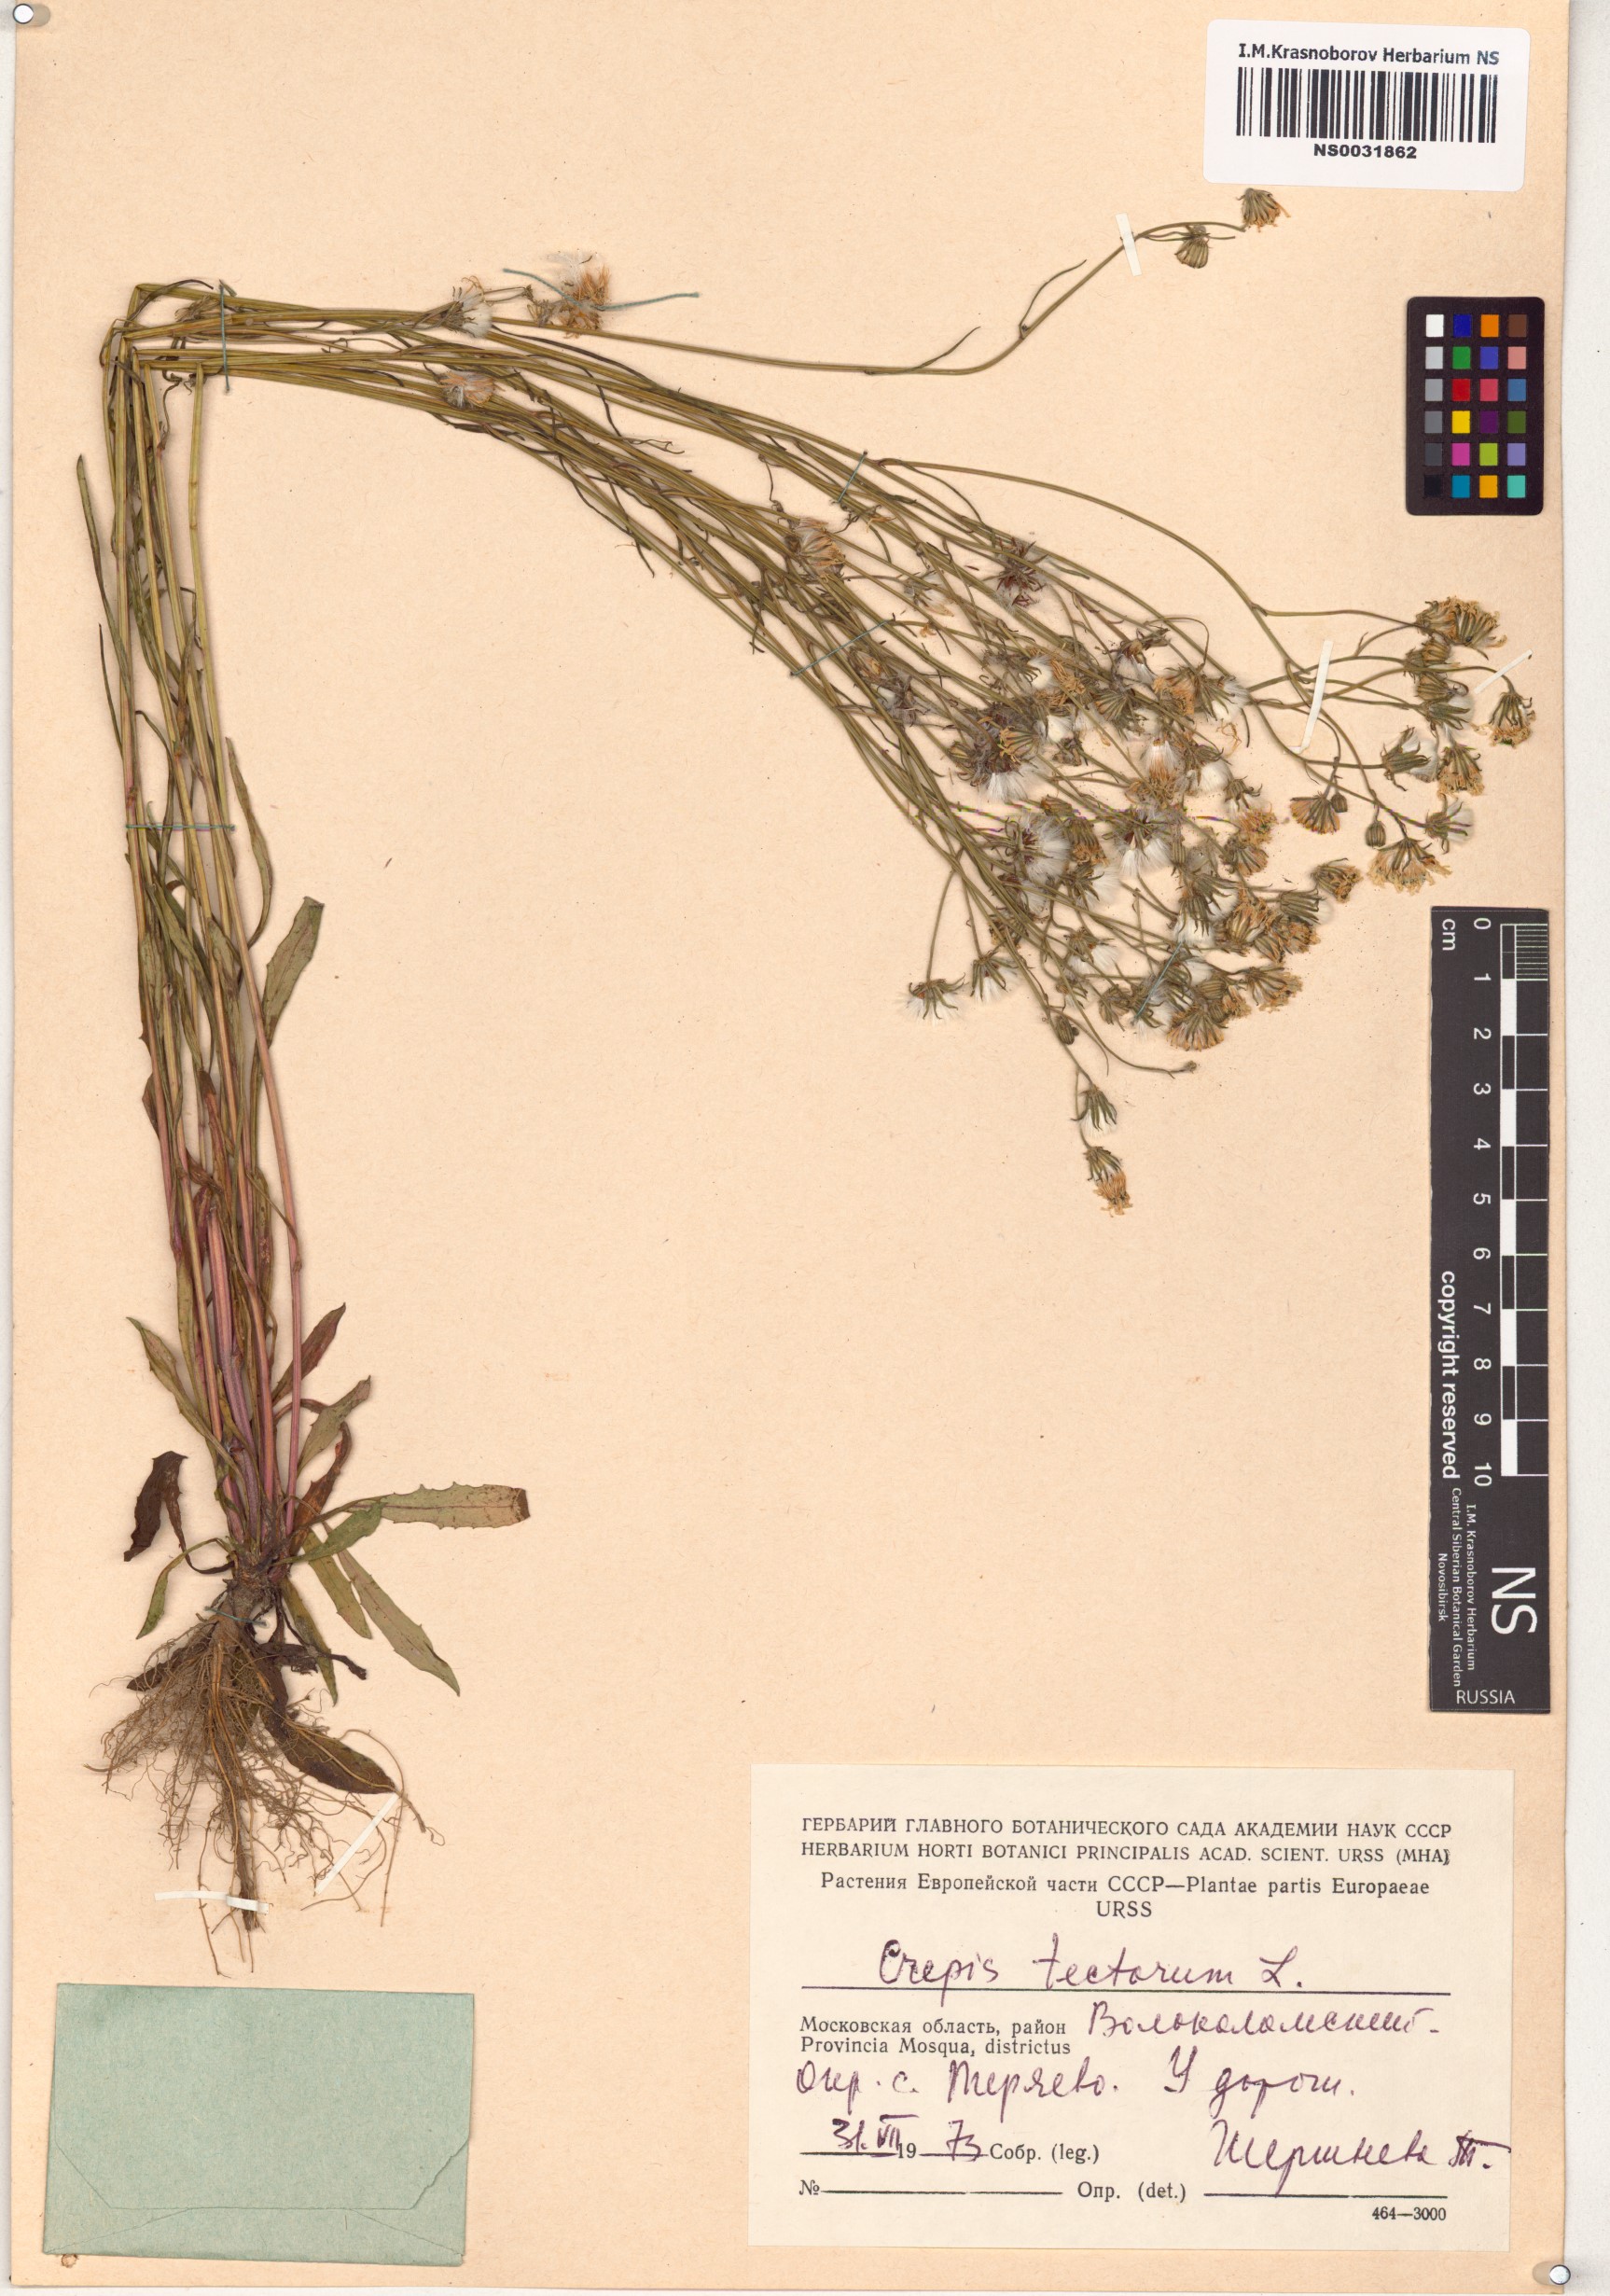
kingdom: Plantae
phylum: Tracheophyta
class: Magnoliopsida
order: Asterales
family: Asteraceae
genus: Crepis
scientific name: Crepis tectorum
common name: Narrow-leaved hawk's-beard
